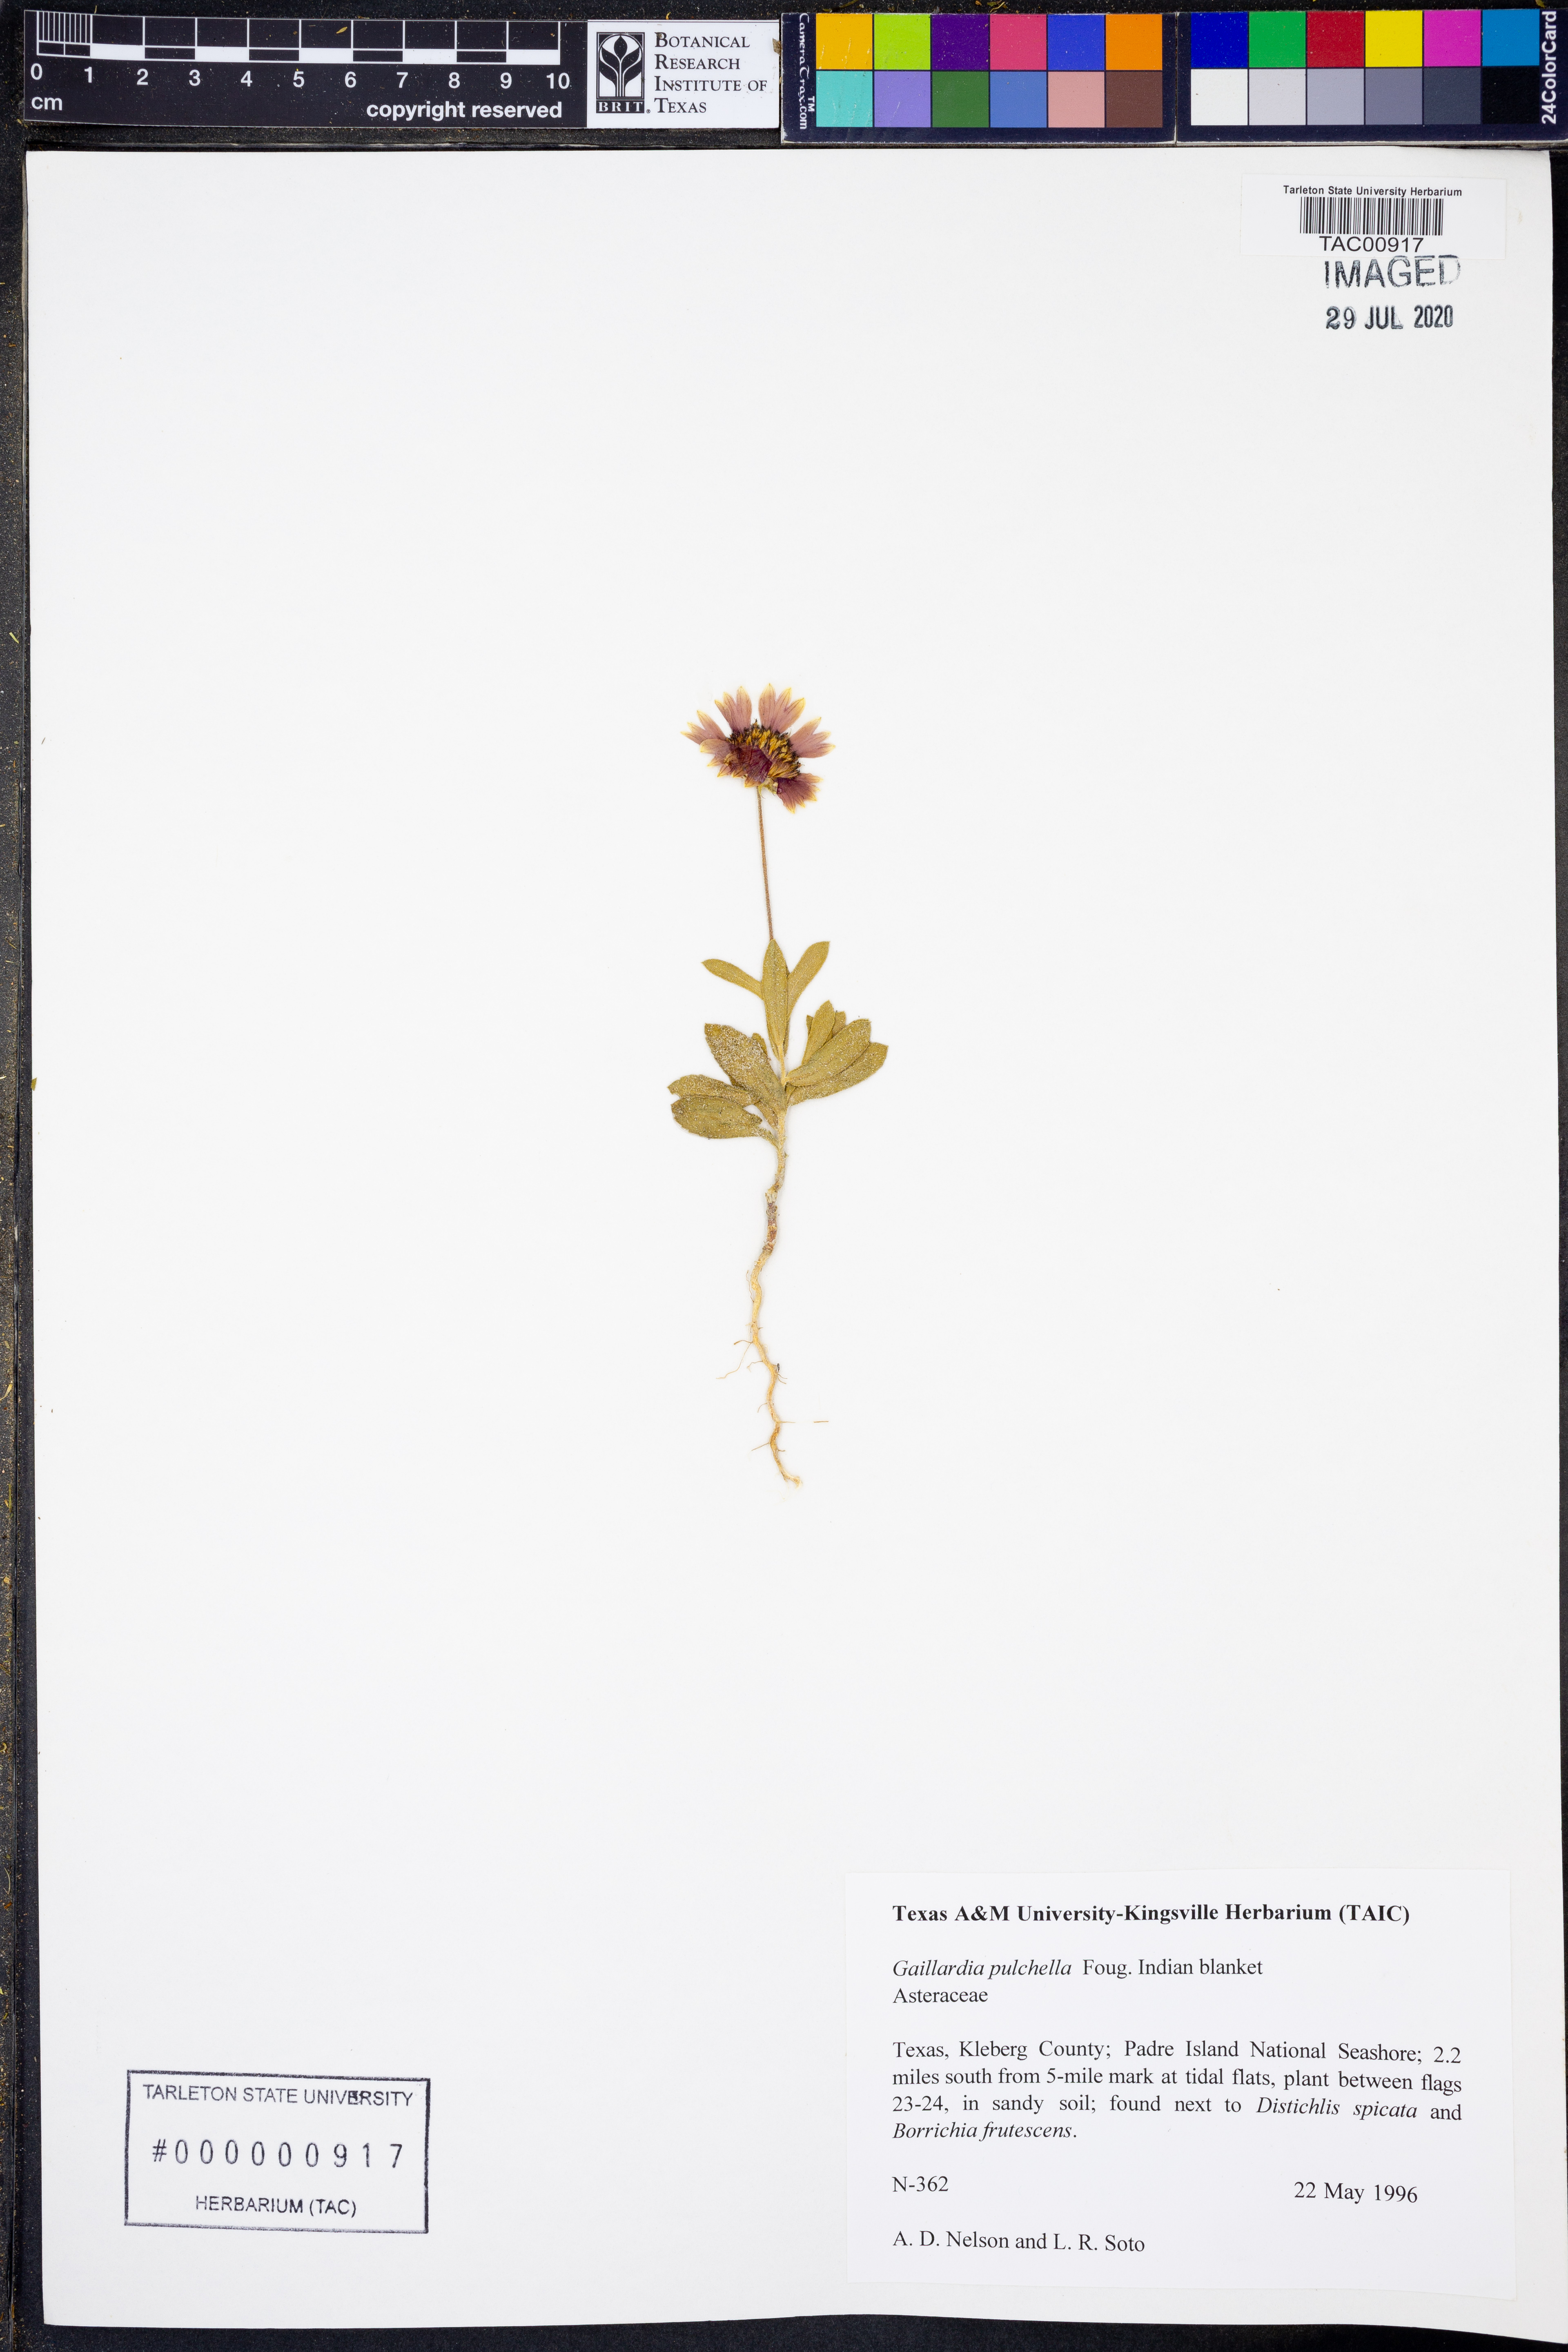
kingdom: Plantae
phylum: Tracheophyta
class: Magnoliopsida
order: Asterales
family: Asteraceae
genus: Gaillardia
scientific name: Gaillardia pulchella
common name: Firewheel
